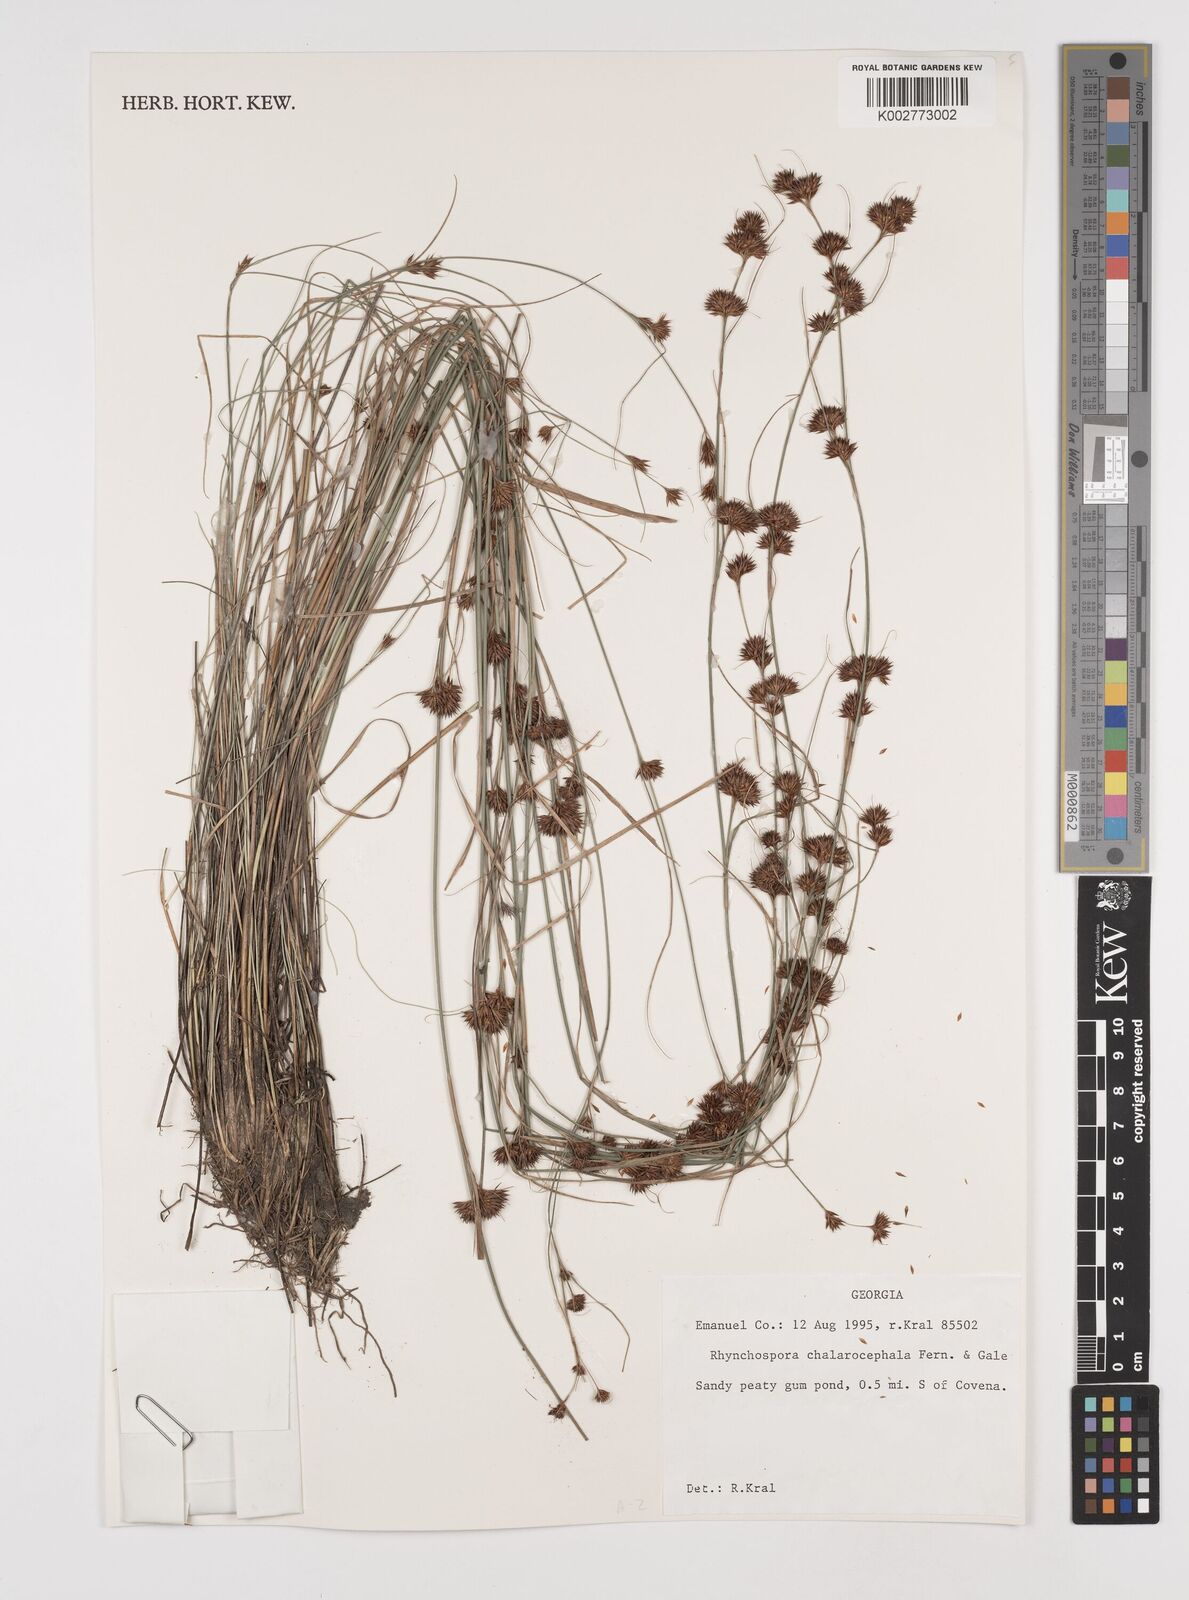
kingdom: Plantae
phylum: Tracheophyta
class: Liliopsida
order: Poales
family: Cyperaceae
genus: Rhynchospora
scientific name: Rhynchospora chalarocephala
